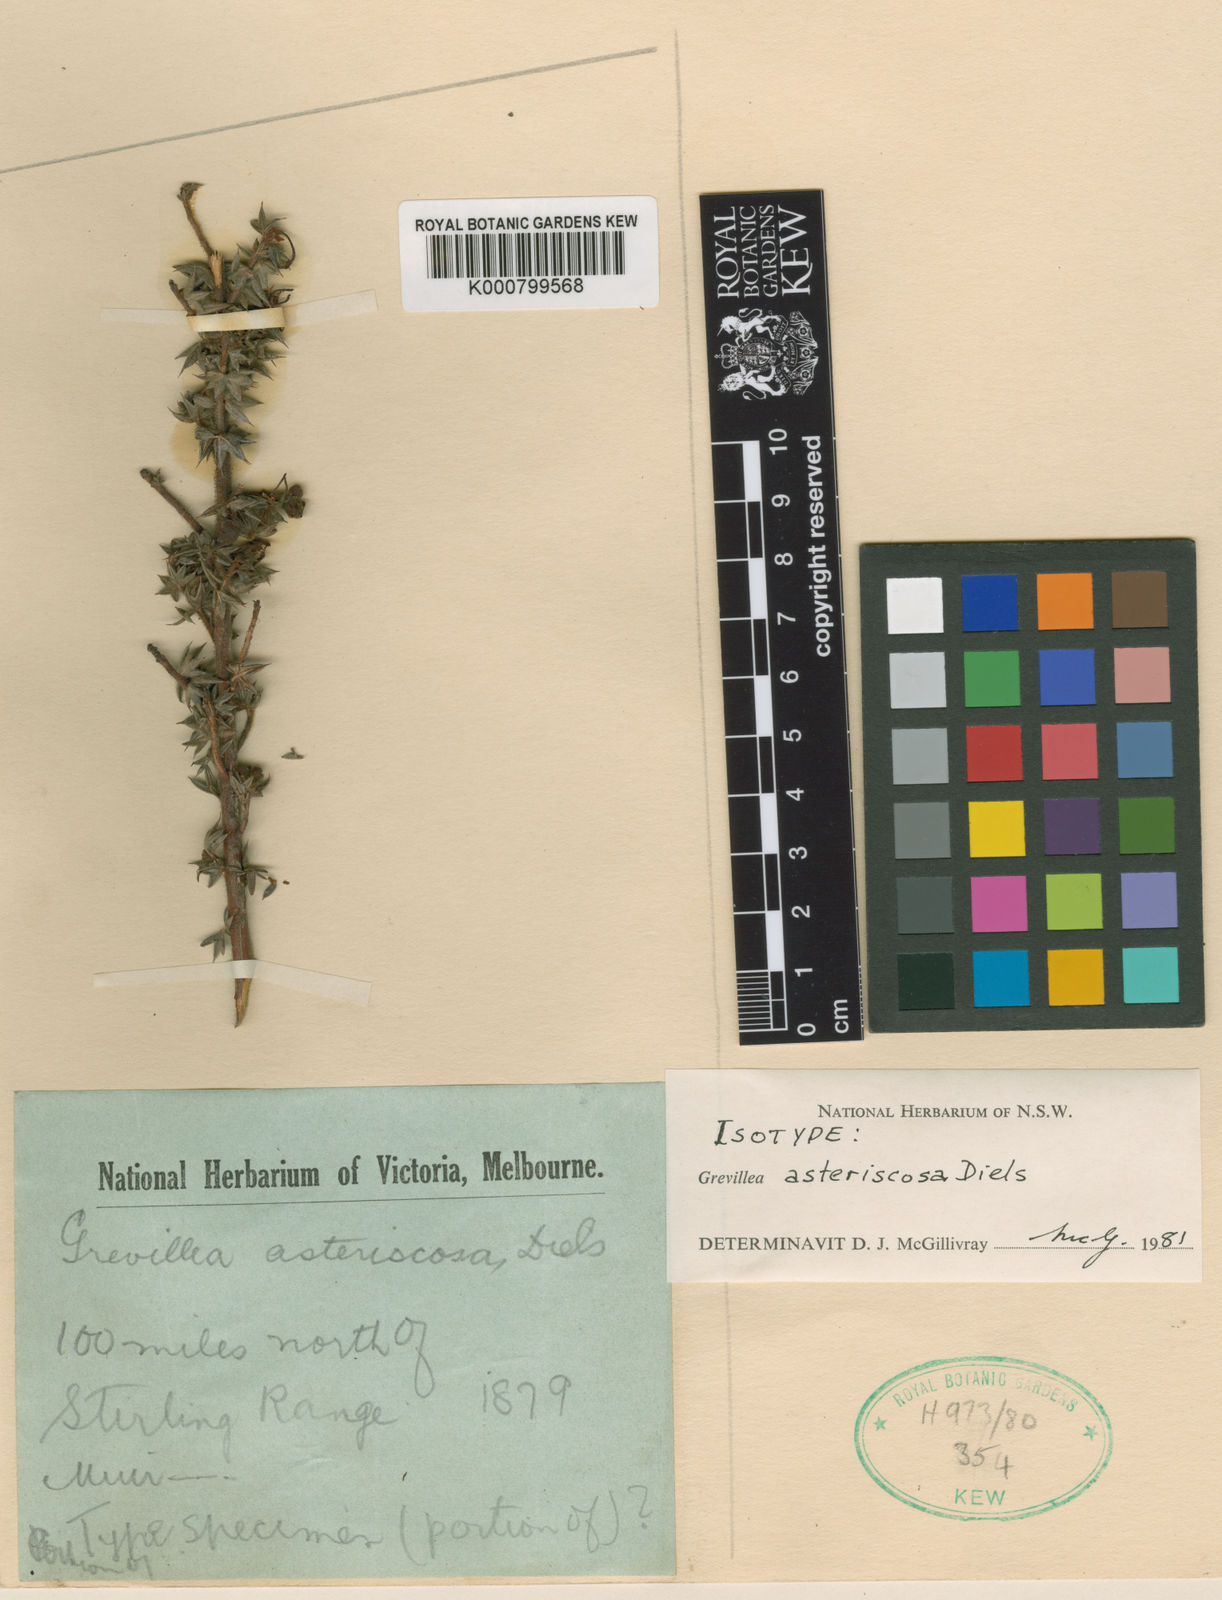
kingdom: Plantae
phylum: Tracheophyta
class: Magnoliopsida
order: Proteales
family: Proteaceae
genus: Grevillea
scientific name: Grevillea asteriscosa
